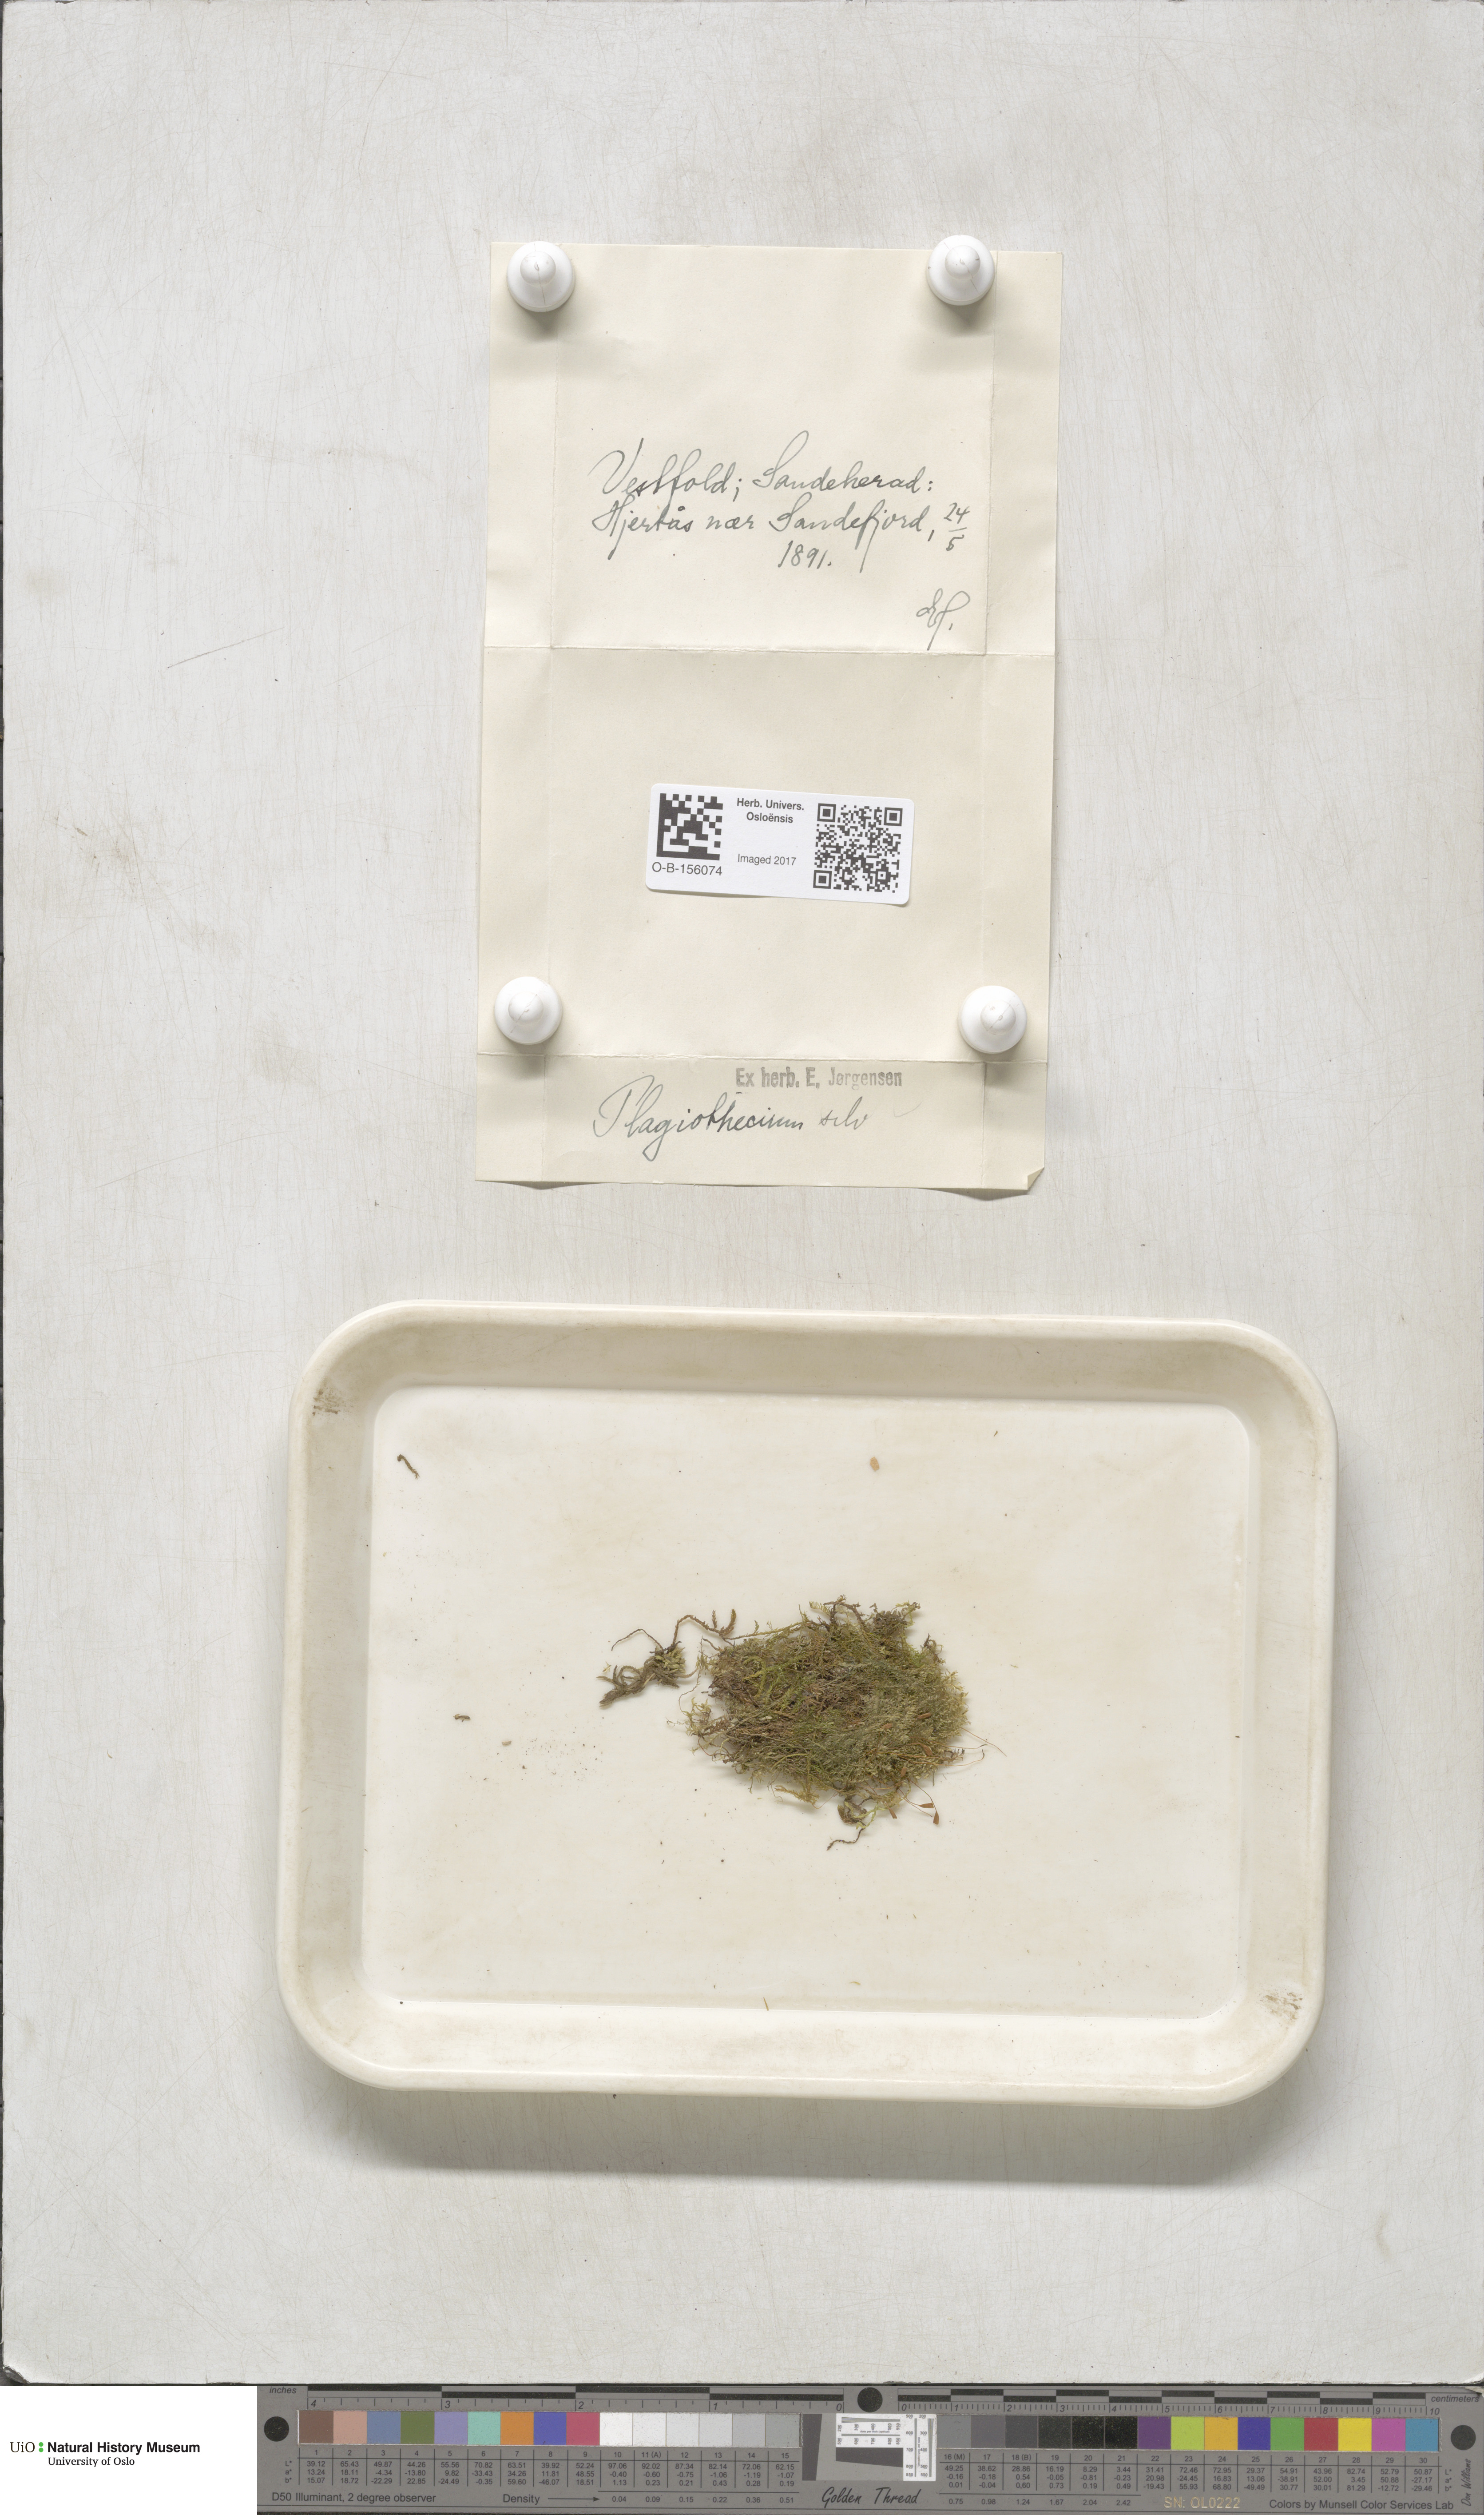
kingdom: Plantae
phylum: Bryophyta
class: Bryopsida
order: Hypnales
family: Plagiotheciaceae
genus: Plagiothecium
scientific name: Plagiothecium nemorale
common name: Woodsy silk-moss
